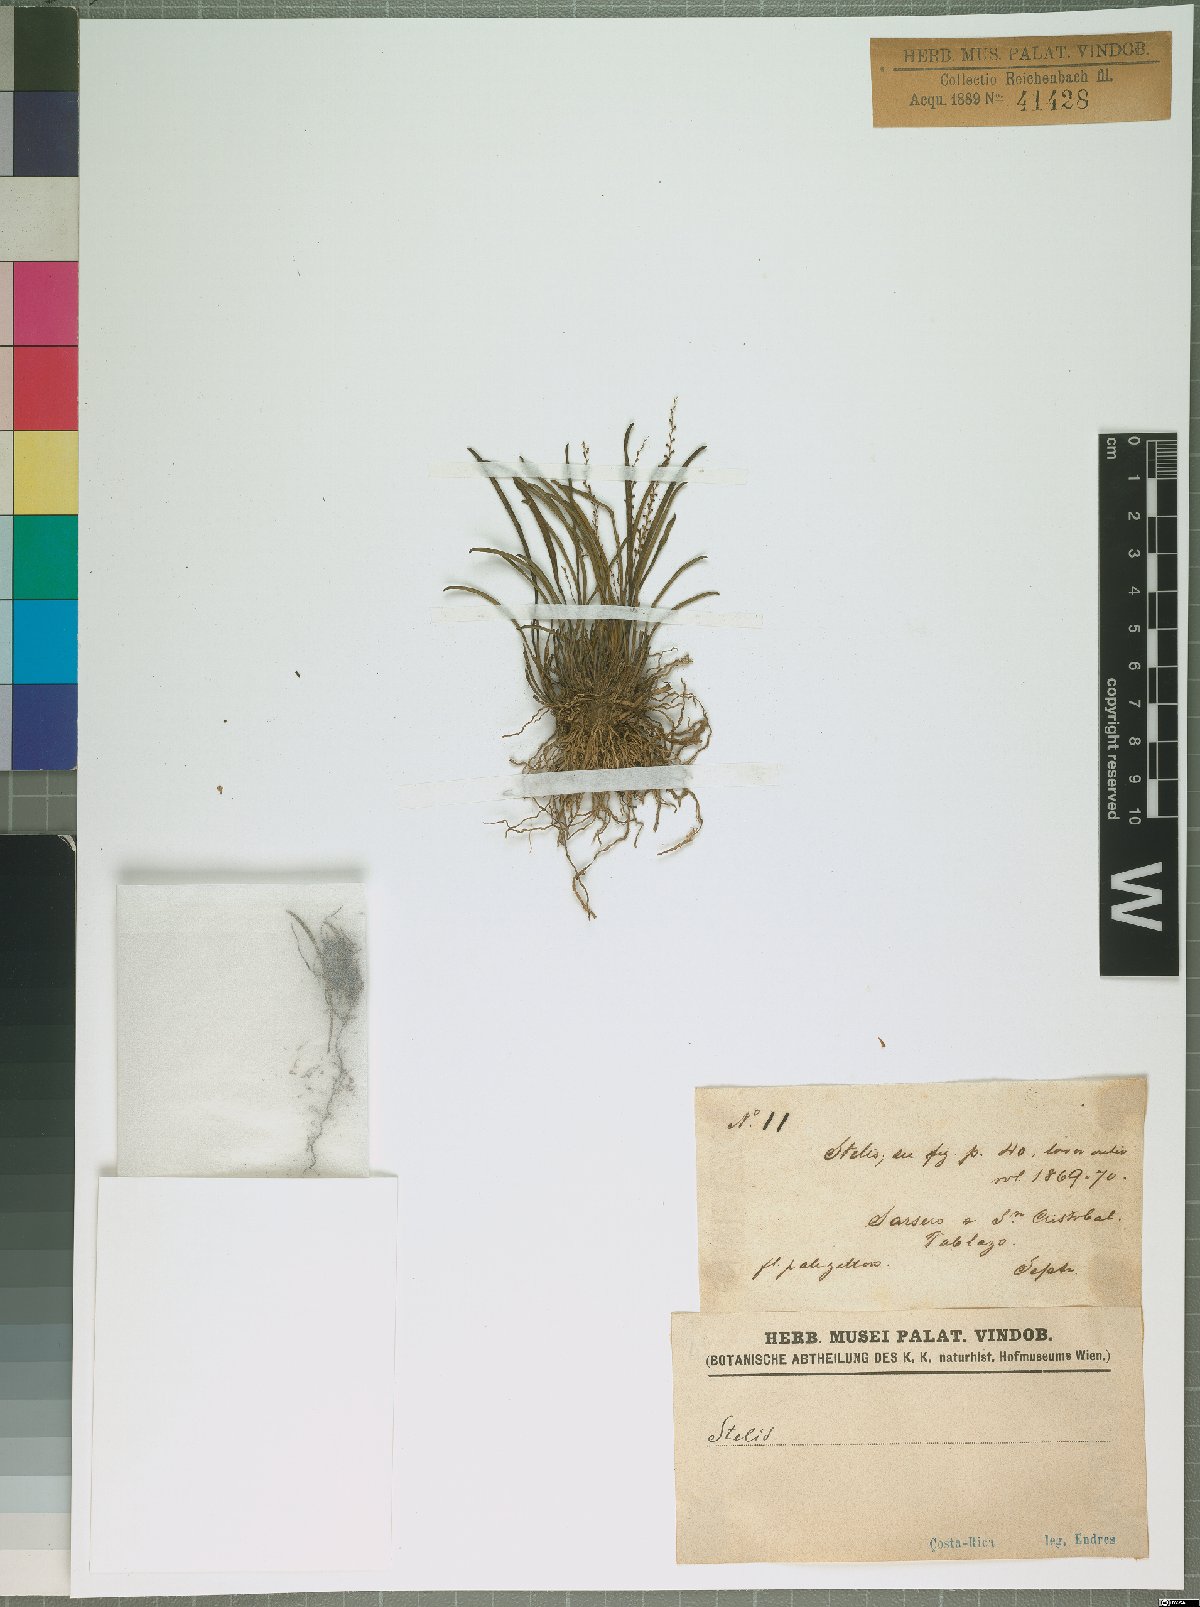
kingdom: Plantae
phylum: Tracheophyta
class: Liliopsida
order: Asparagales
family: Orchidaceae
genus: Stelis
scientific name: Stelis
